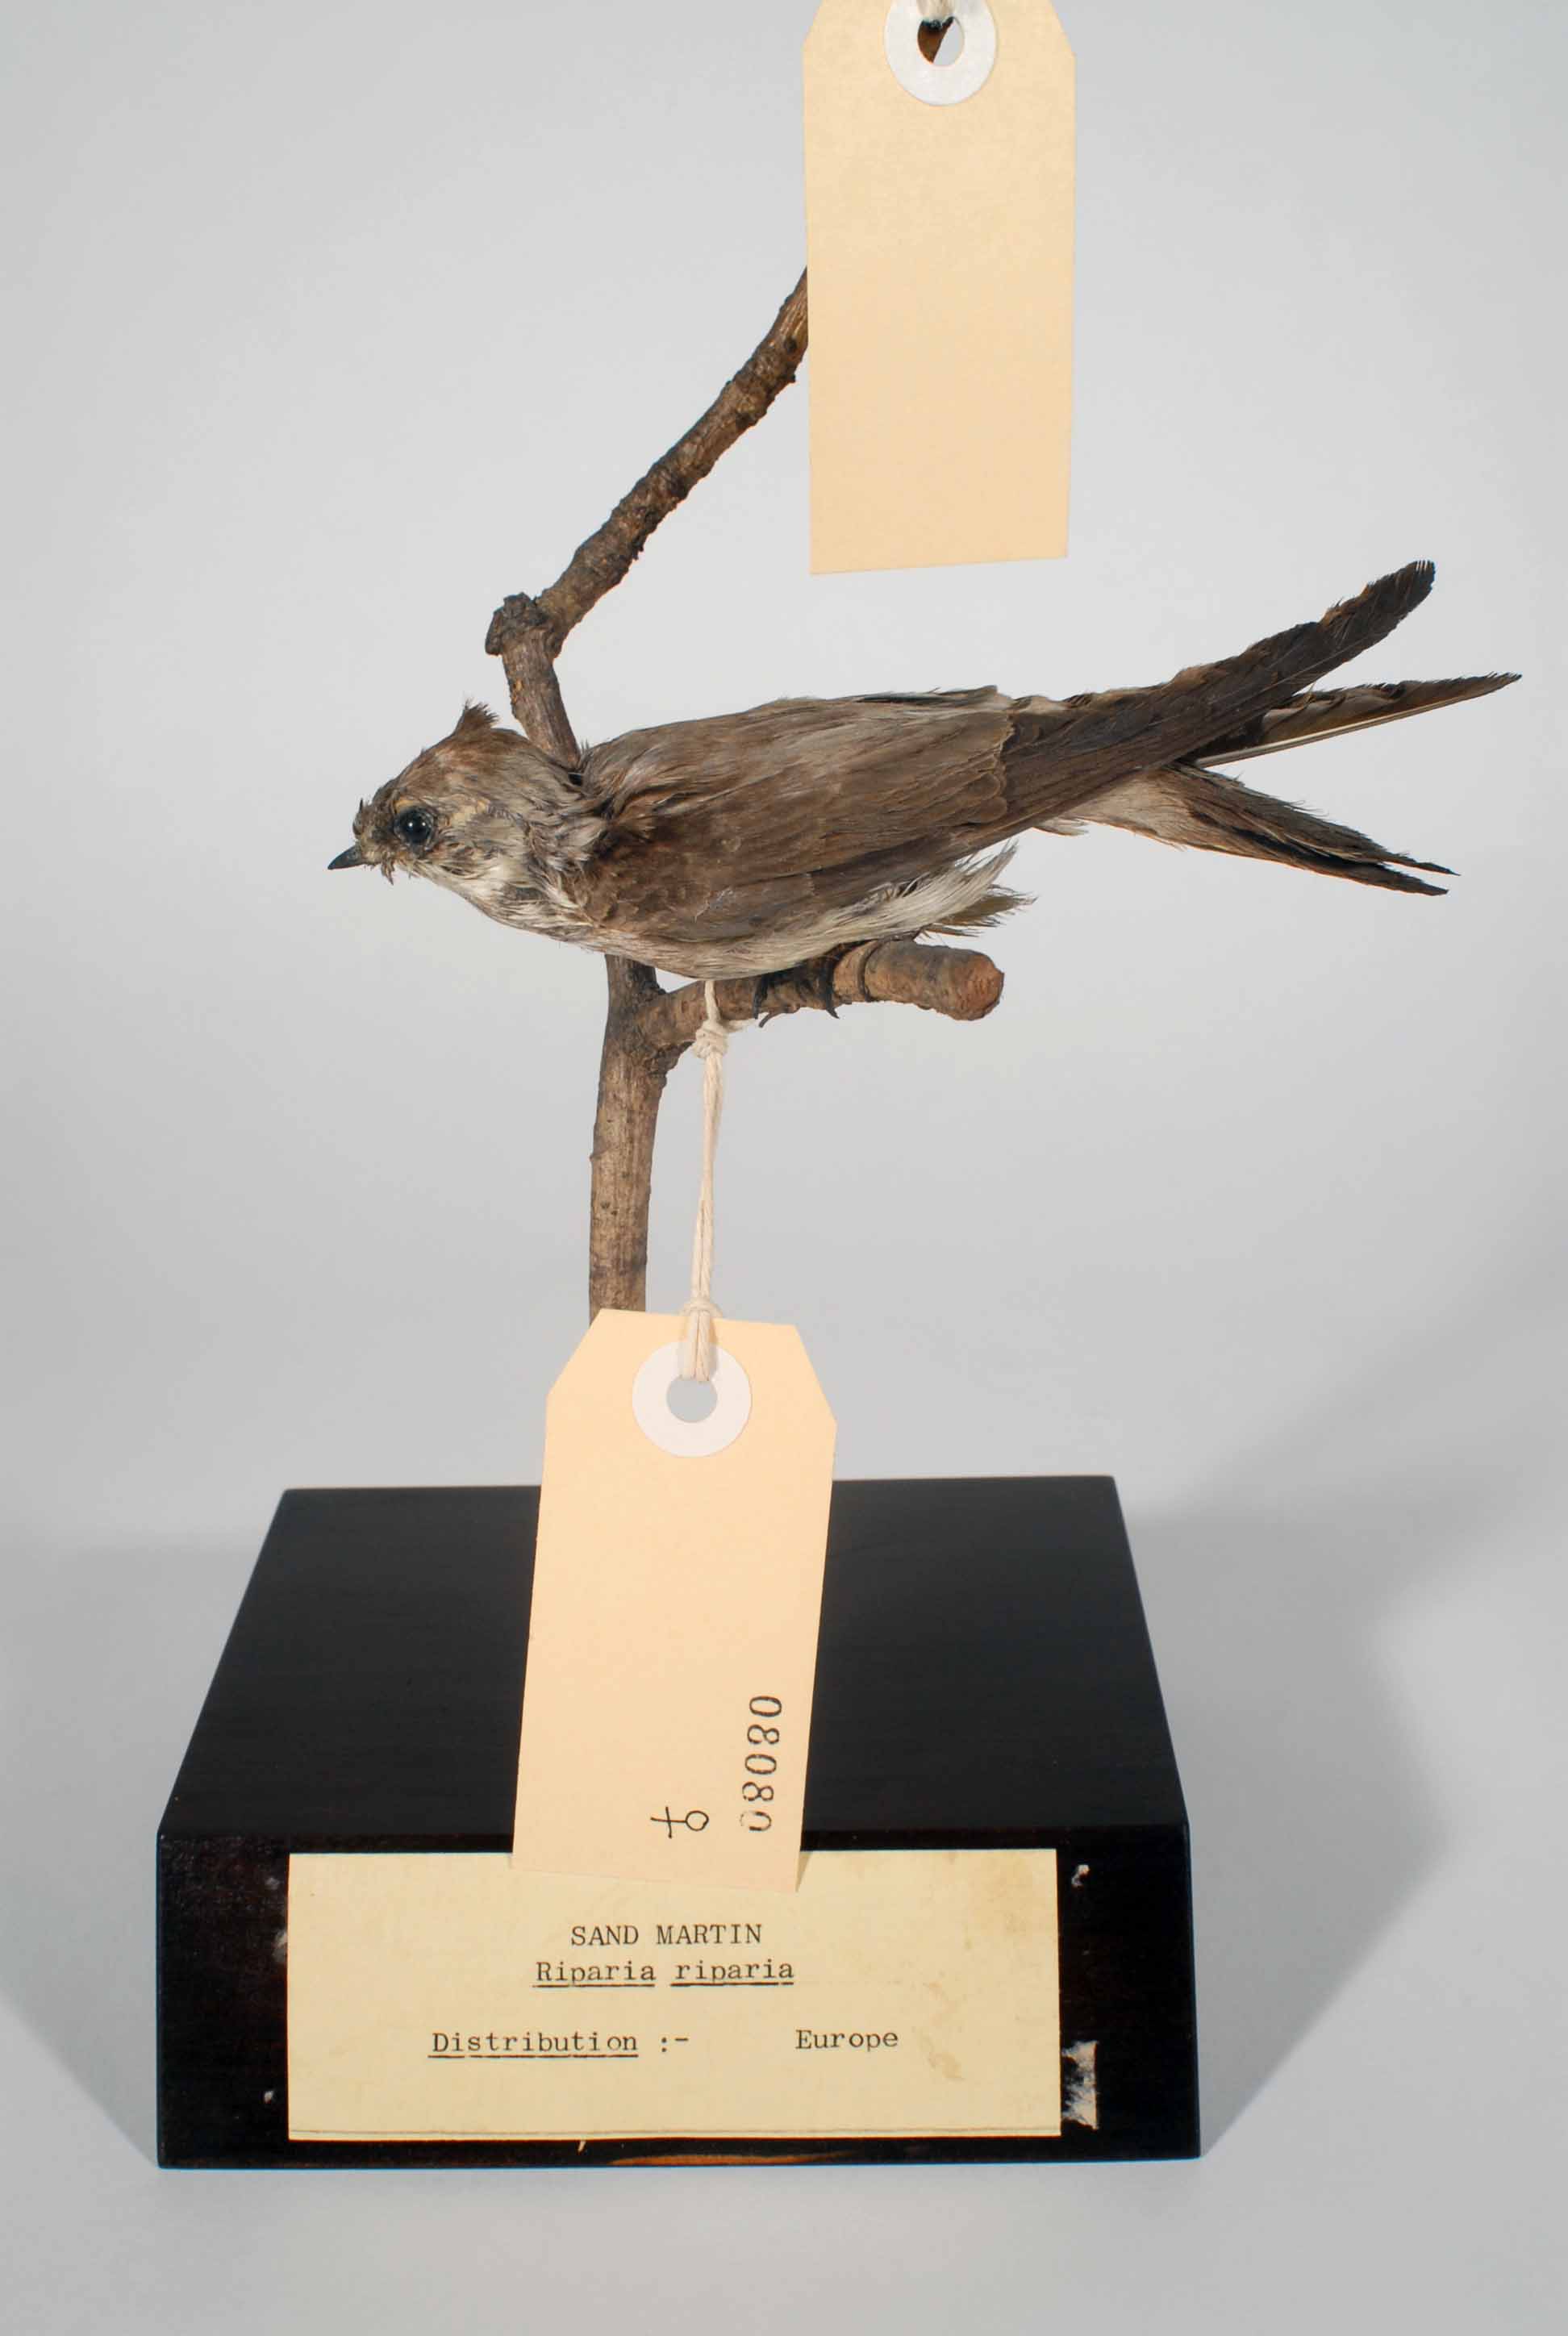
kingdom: Animalia
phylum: Chordata
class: Aves
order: Passeriformes
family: Hirundinidae
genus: Riparia
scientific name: Riparia riparia
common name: Sand martin
